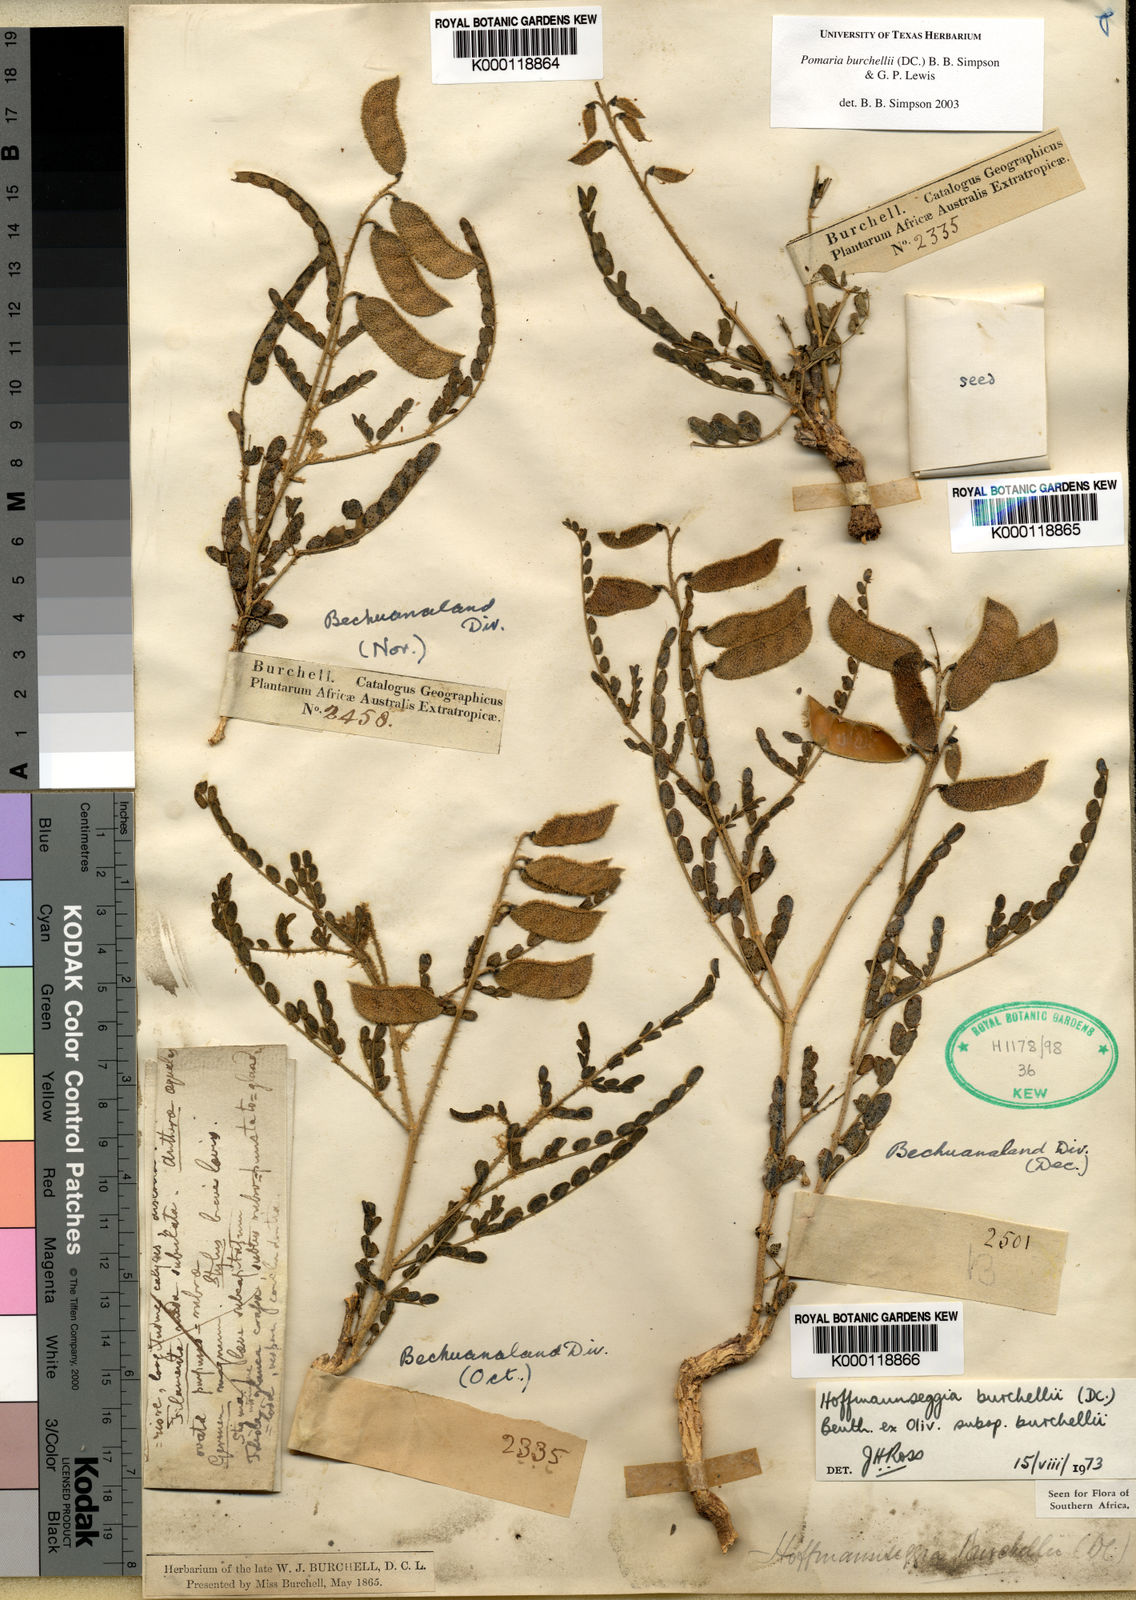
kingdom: Plantae
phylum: Tracheophyta
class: Magnoliopsida
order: Fabales
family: Fabaceae
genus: Pomaria
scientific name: Pomaria burchellii
